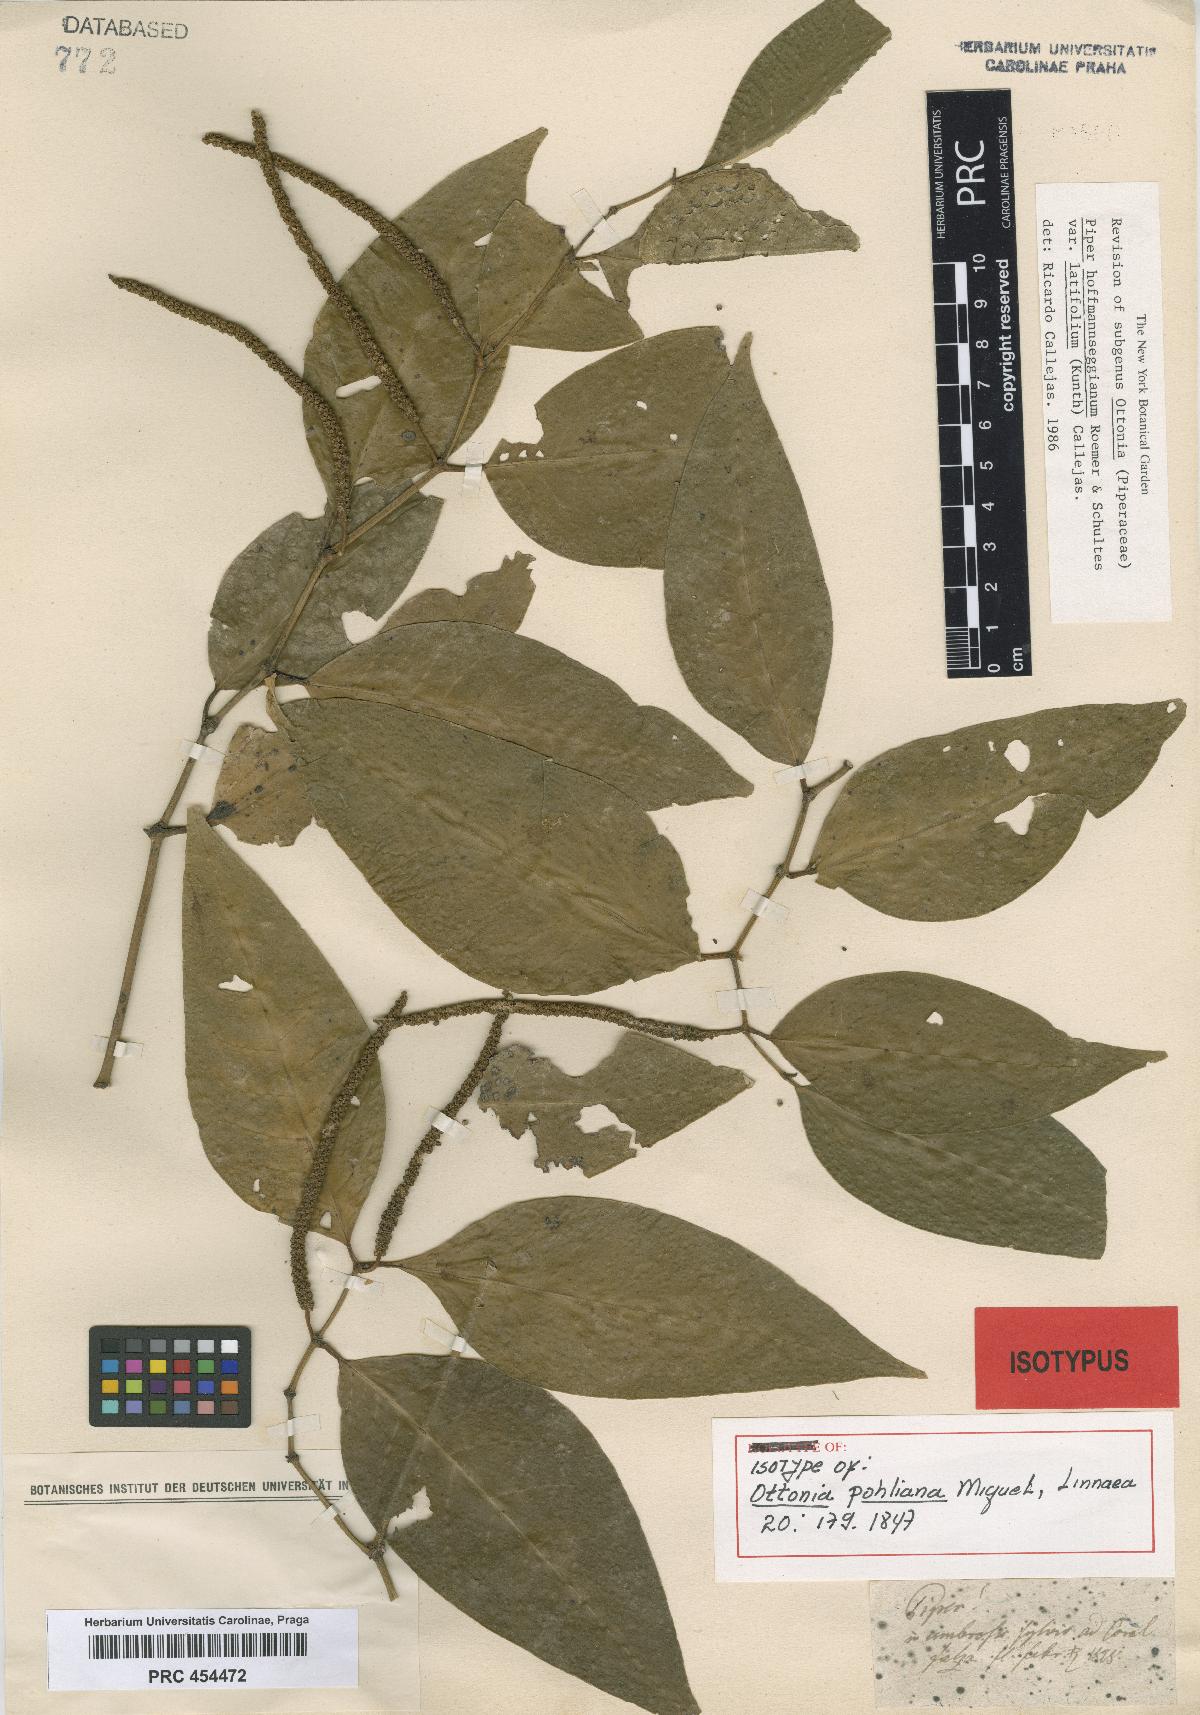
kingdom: Plantae
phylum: Tracheophyta
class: Magnoliopsida
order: Piperales
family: Piperaceae
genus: Piper
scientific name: Piper hoffmannseggianum
